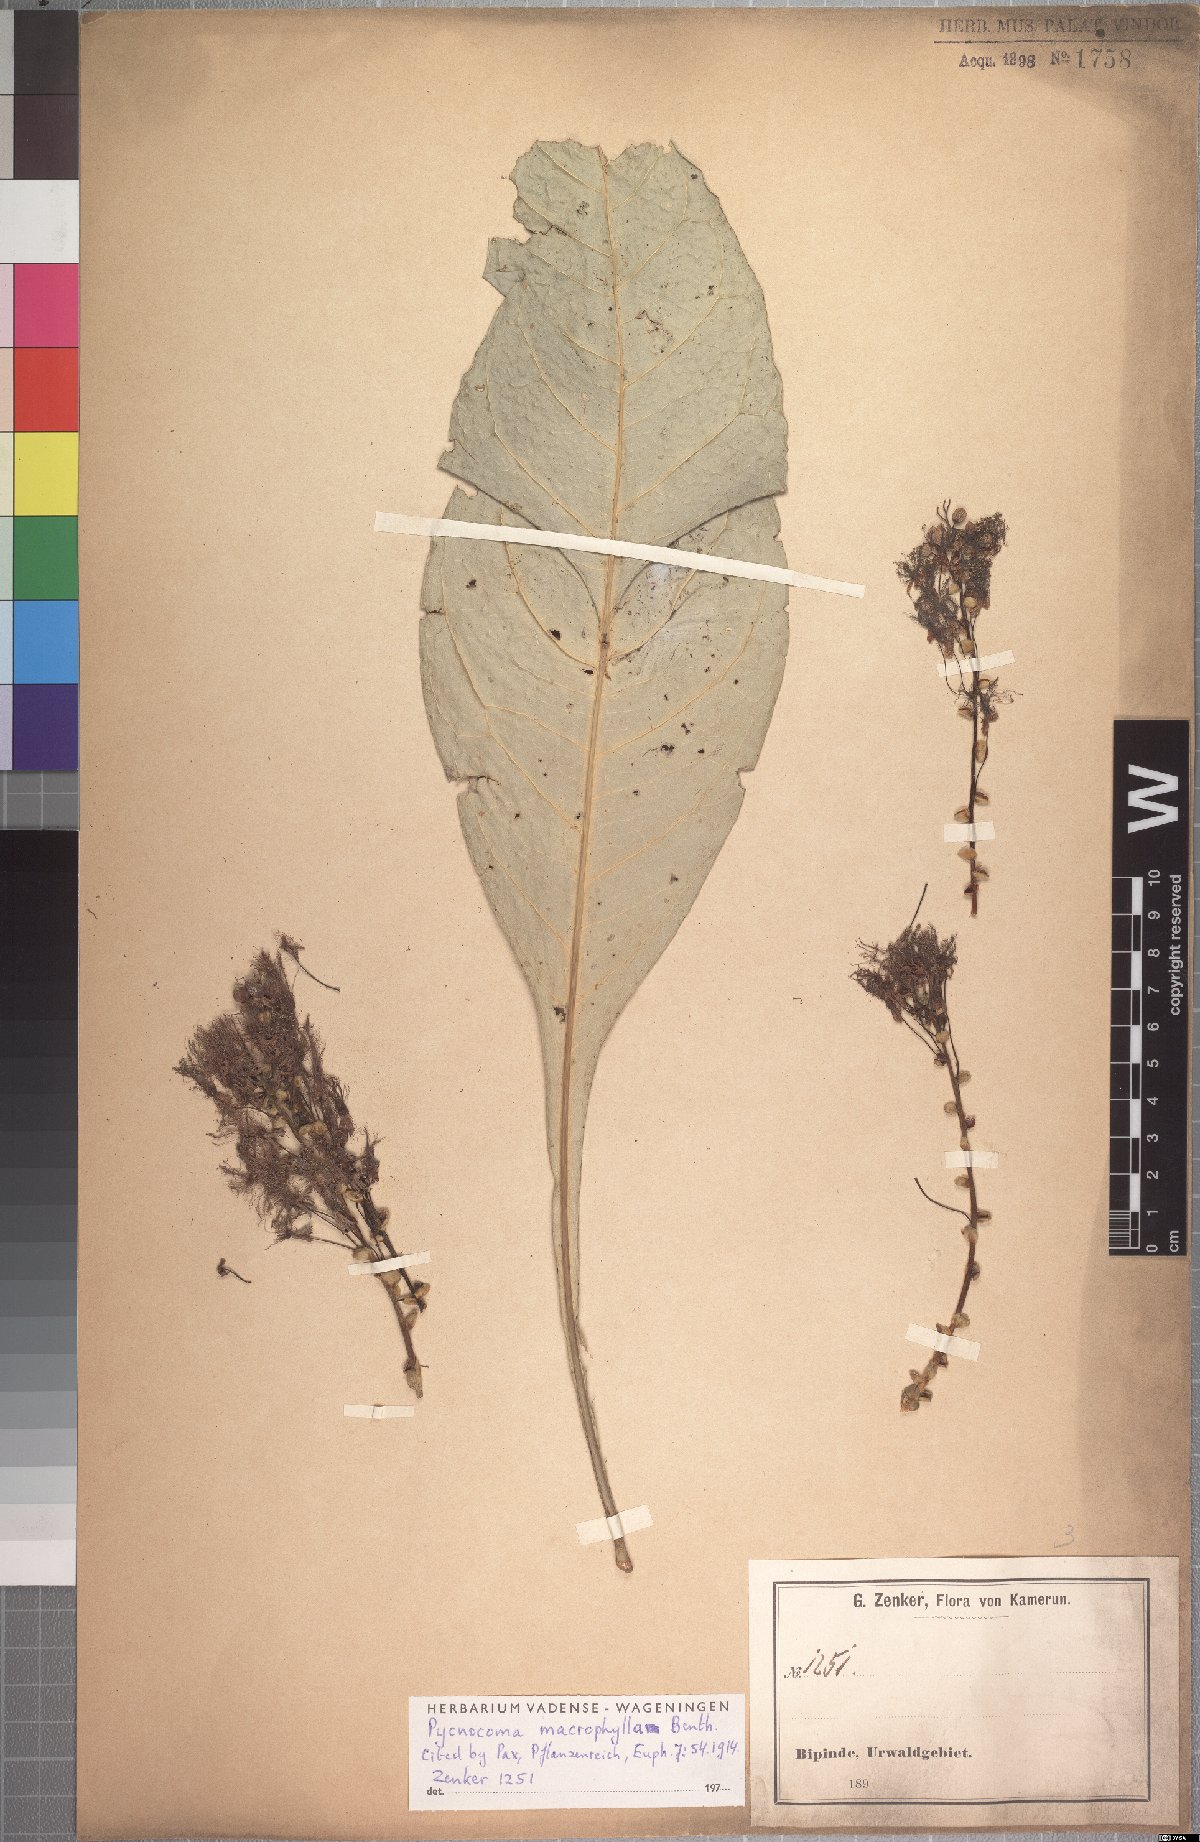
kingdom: Plantae
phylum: Tracheophyta
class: Magnoliopsida
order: Malpighiales
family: Euphorbiaceae
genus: Pycnocoma
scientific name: Pycnocoma macrophylla
